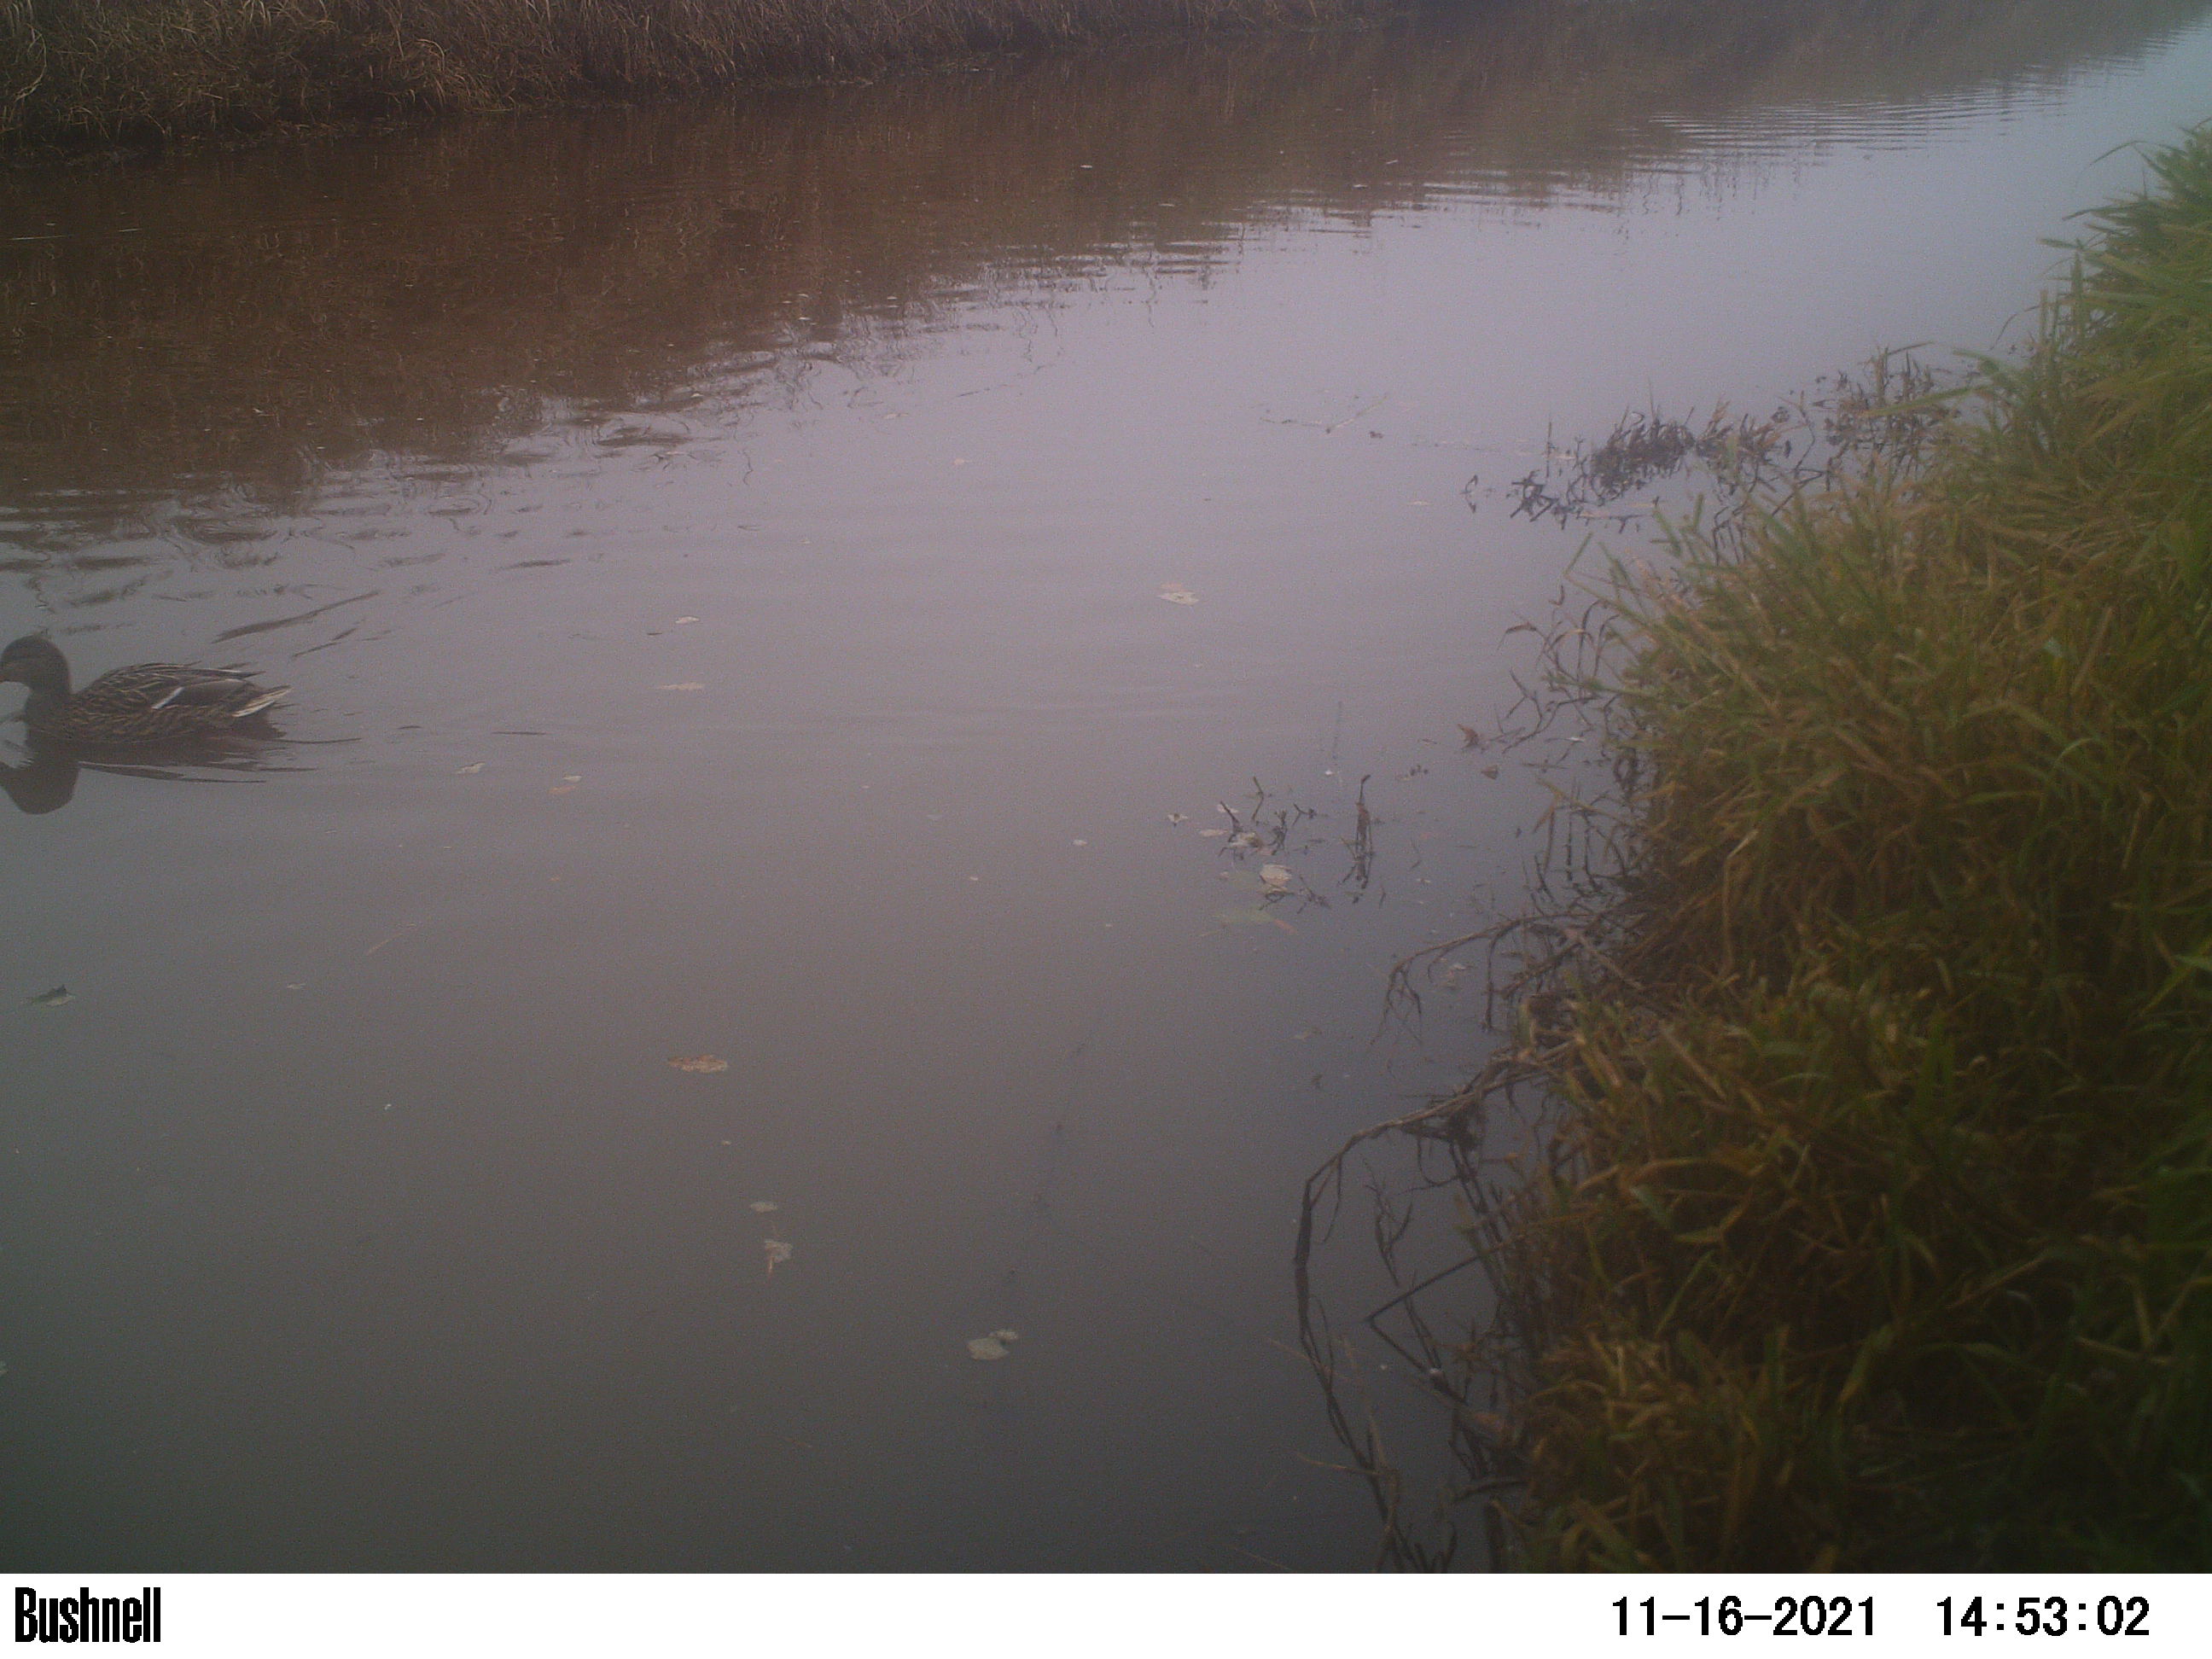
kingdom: Animalia
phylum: Chordata
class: Aves
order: Anseriformes
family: Anatidae
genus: Anas
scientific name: Anas
